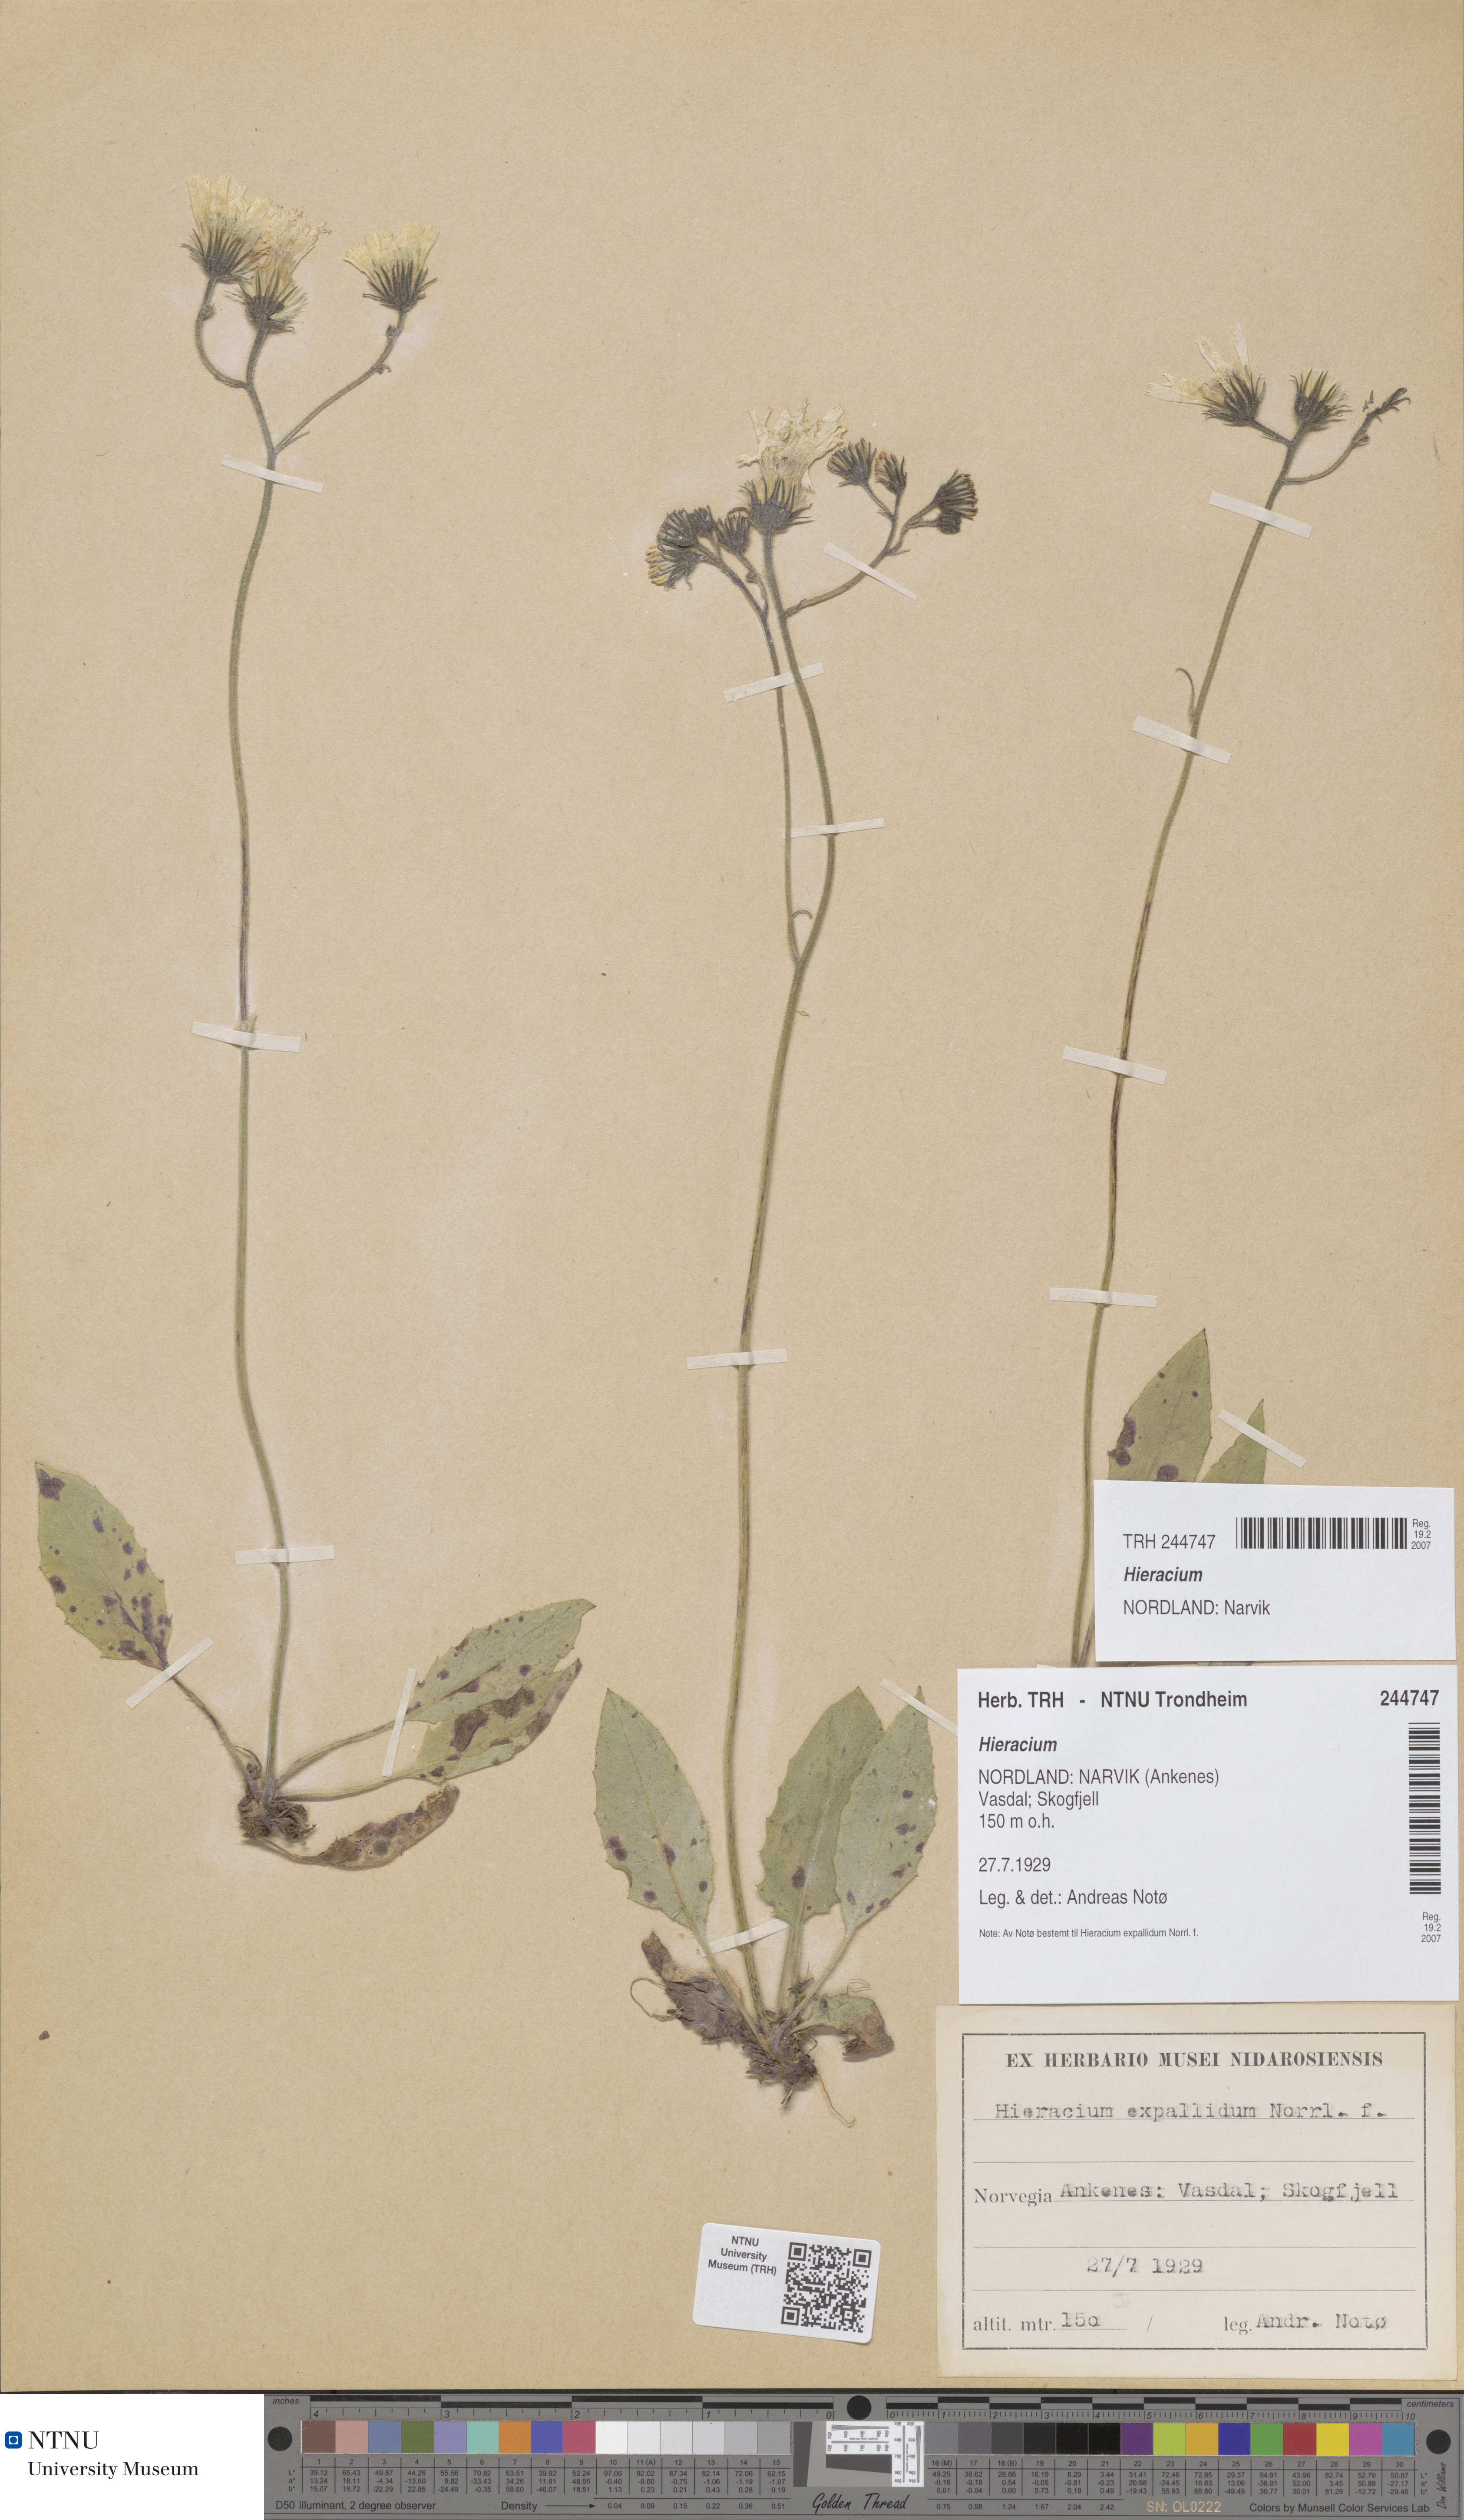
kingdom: Plantae
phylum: Tracheophyta
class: Magnoliopsida
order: Asterales
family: Asteraceae
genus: Hieracium
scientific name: Hieracium
